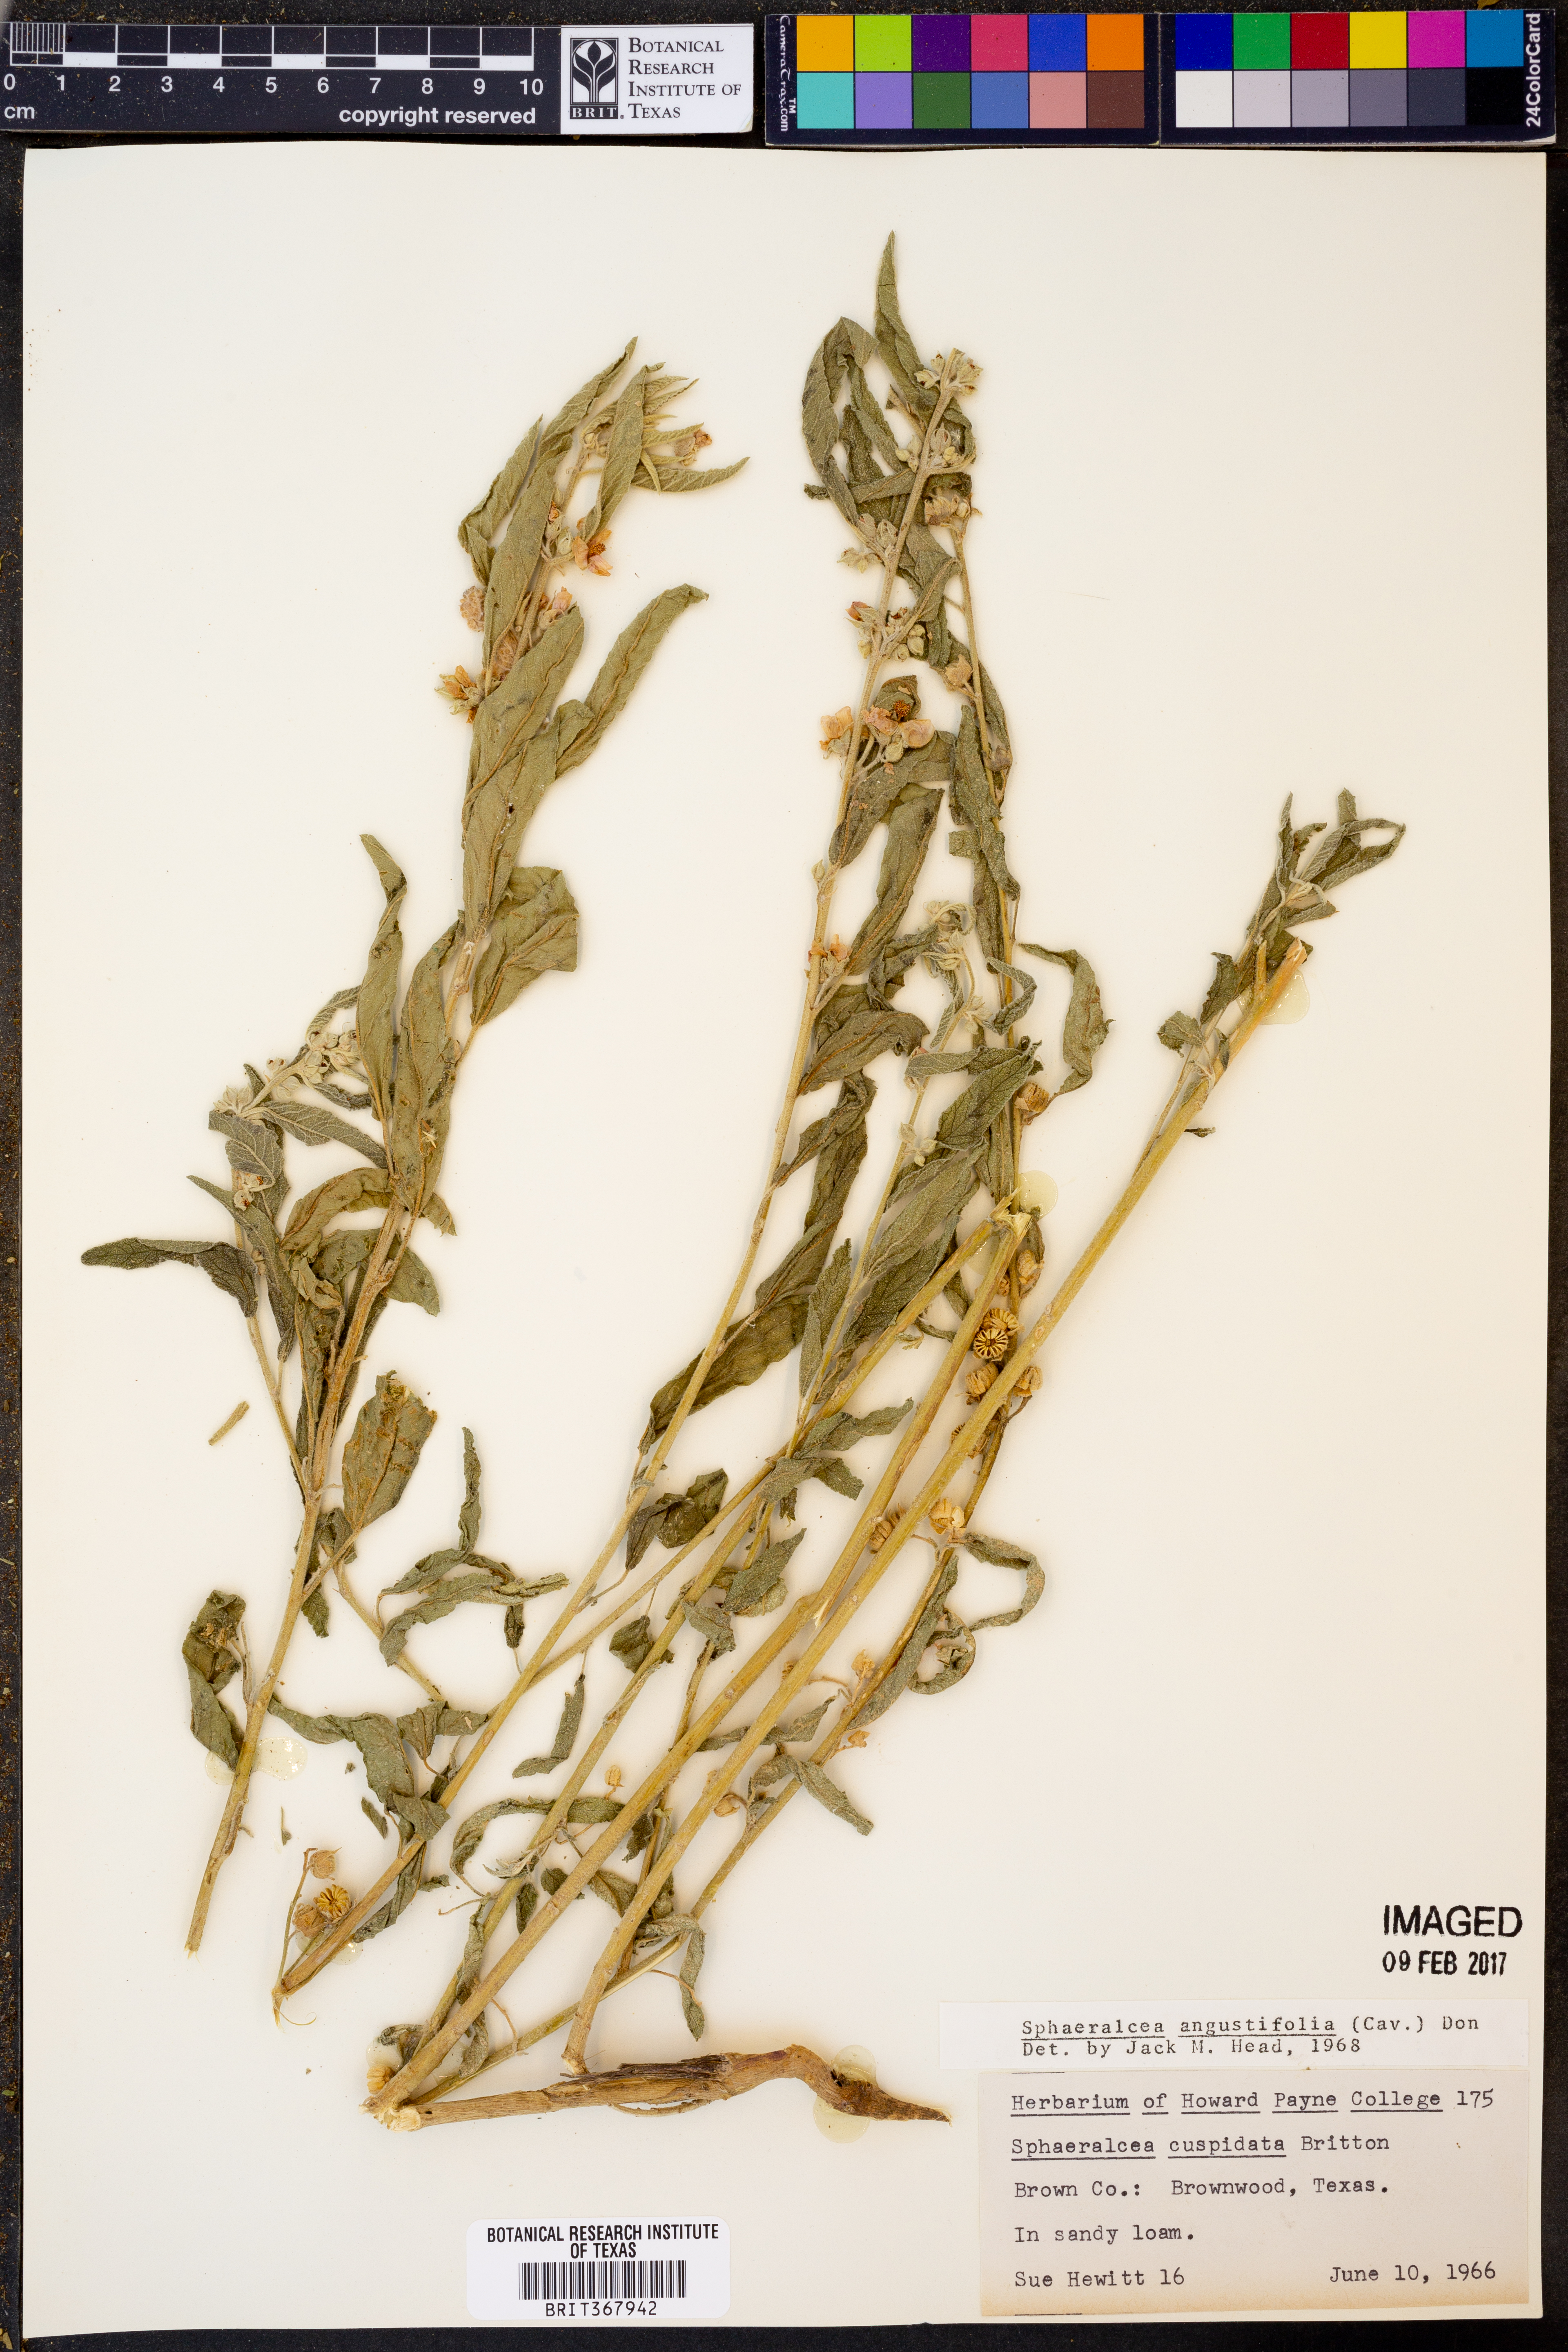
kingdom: Plantae
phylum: Tracheophyta
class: Magnoliopsida
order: Malvales
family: Malvaceae
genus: Sphaeralcea
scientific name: Sphaeralcea angustifolia
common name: Copper globe-mallow
